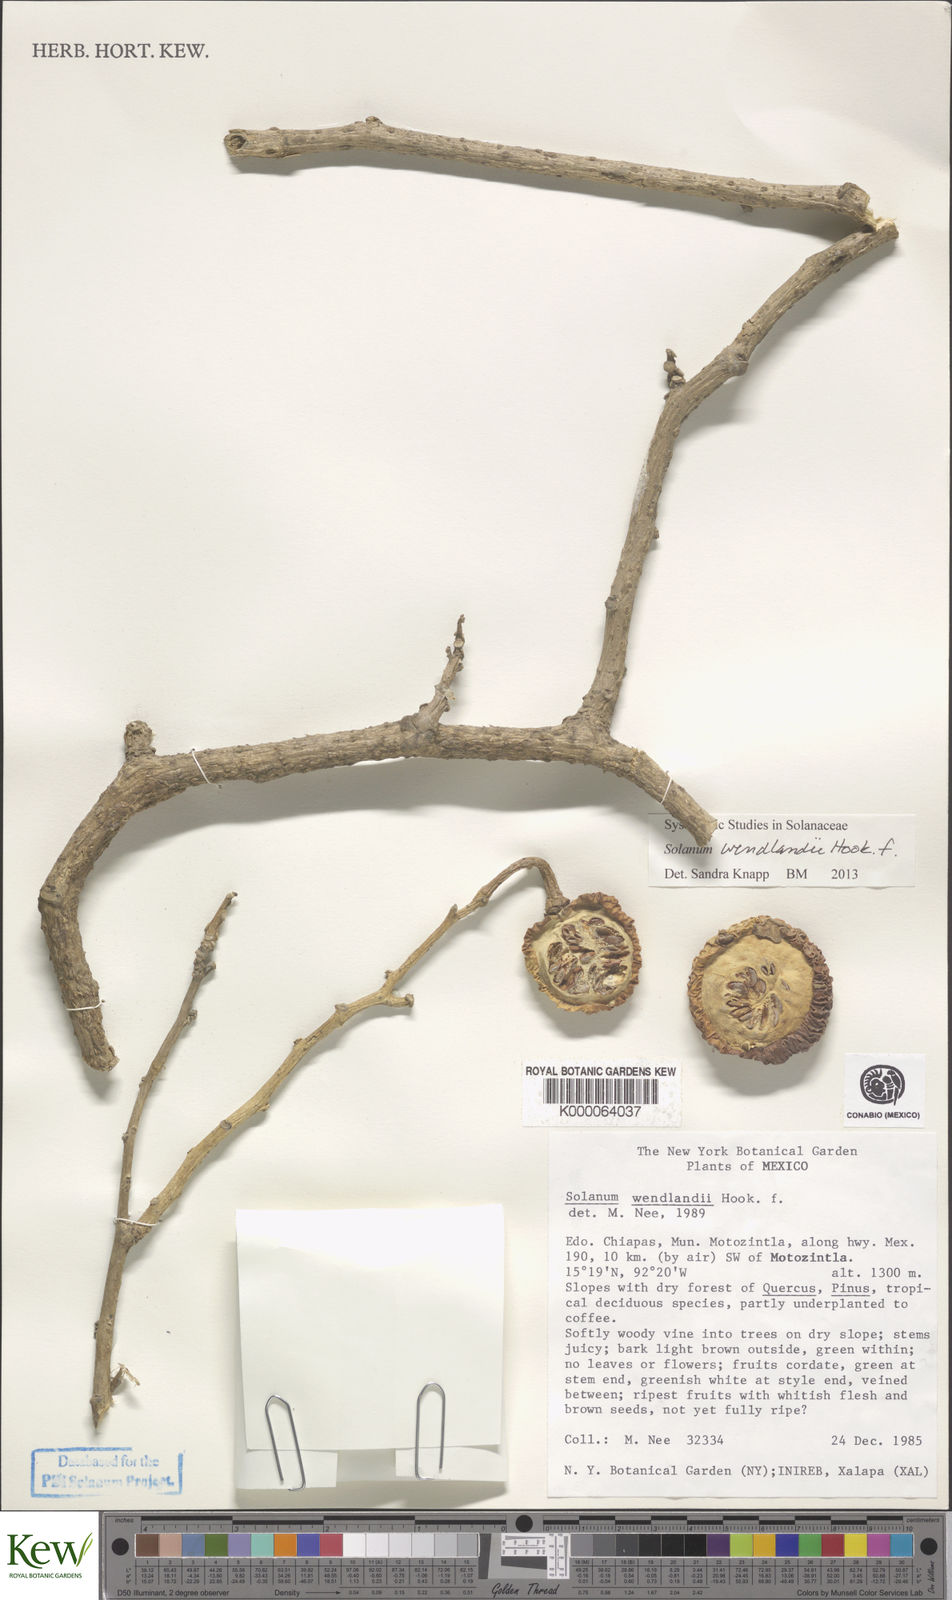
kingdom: Plantae
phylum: Tracheophyta
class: Magnoliopsida
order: Solanales
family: Solanaceae
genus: Solanum
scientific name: Solanum wendlandii
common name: Costa rican nightshade
